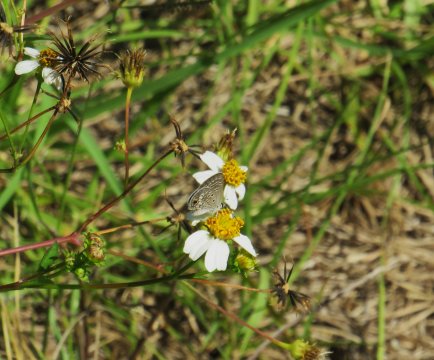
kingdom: Animalia
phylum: Arthropoda
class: Insecta
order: Lepidoptera
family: Lycaenidae
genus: Hemiargus
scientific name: Hemiargus ceraunus
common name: Ceraunus Blue
